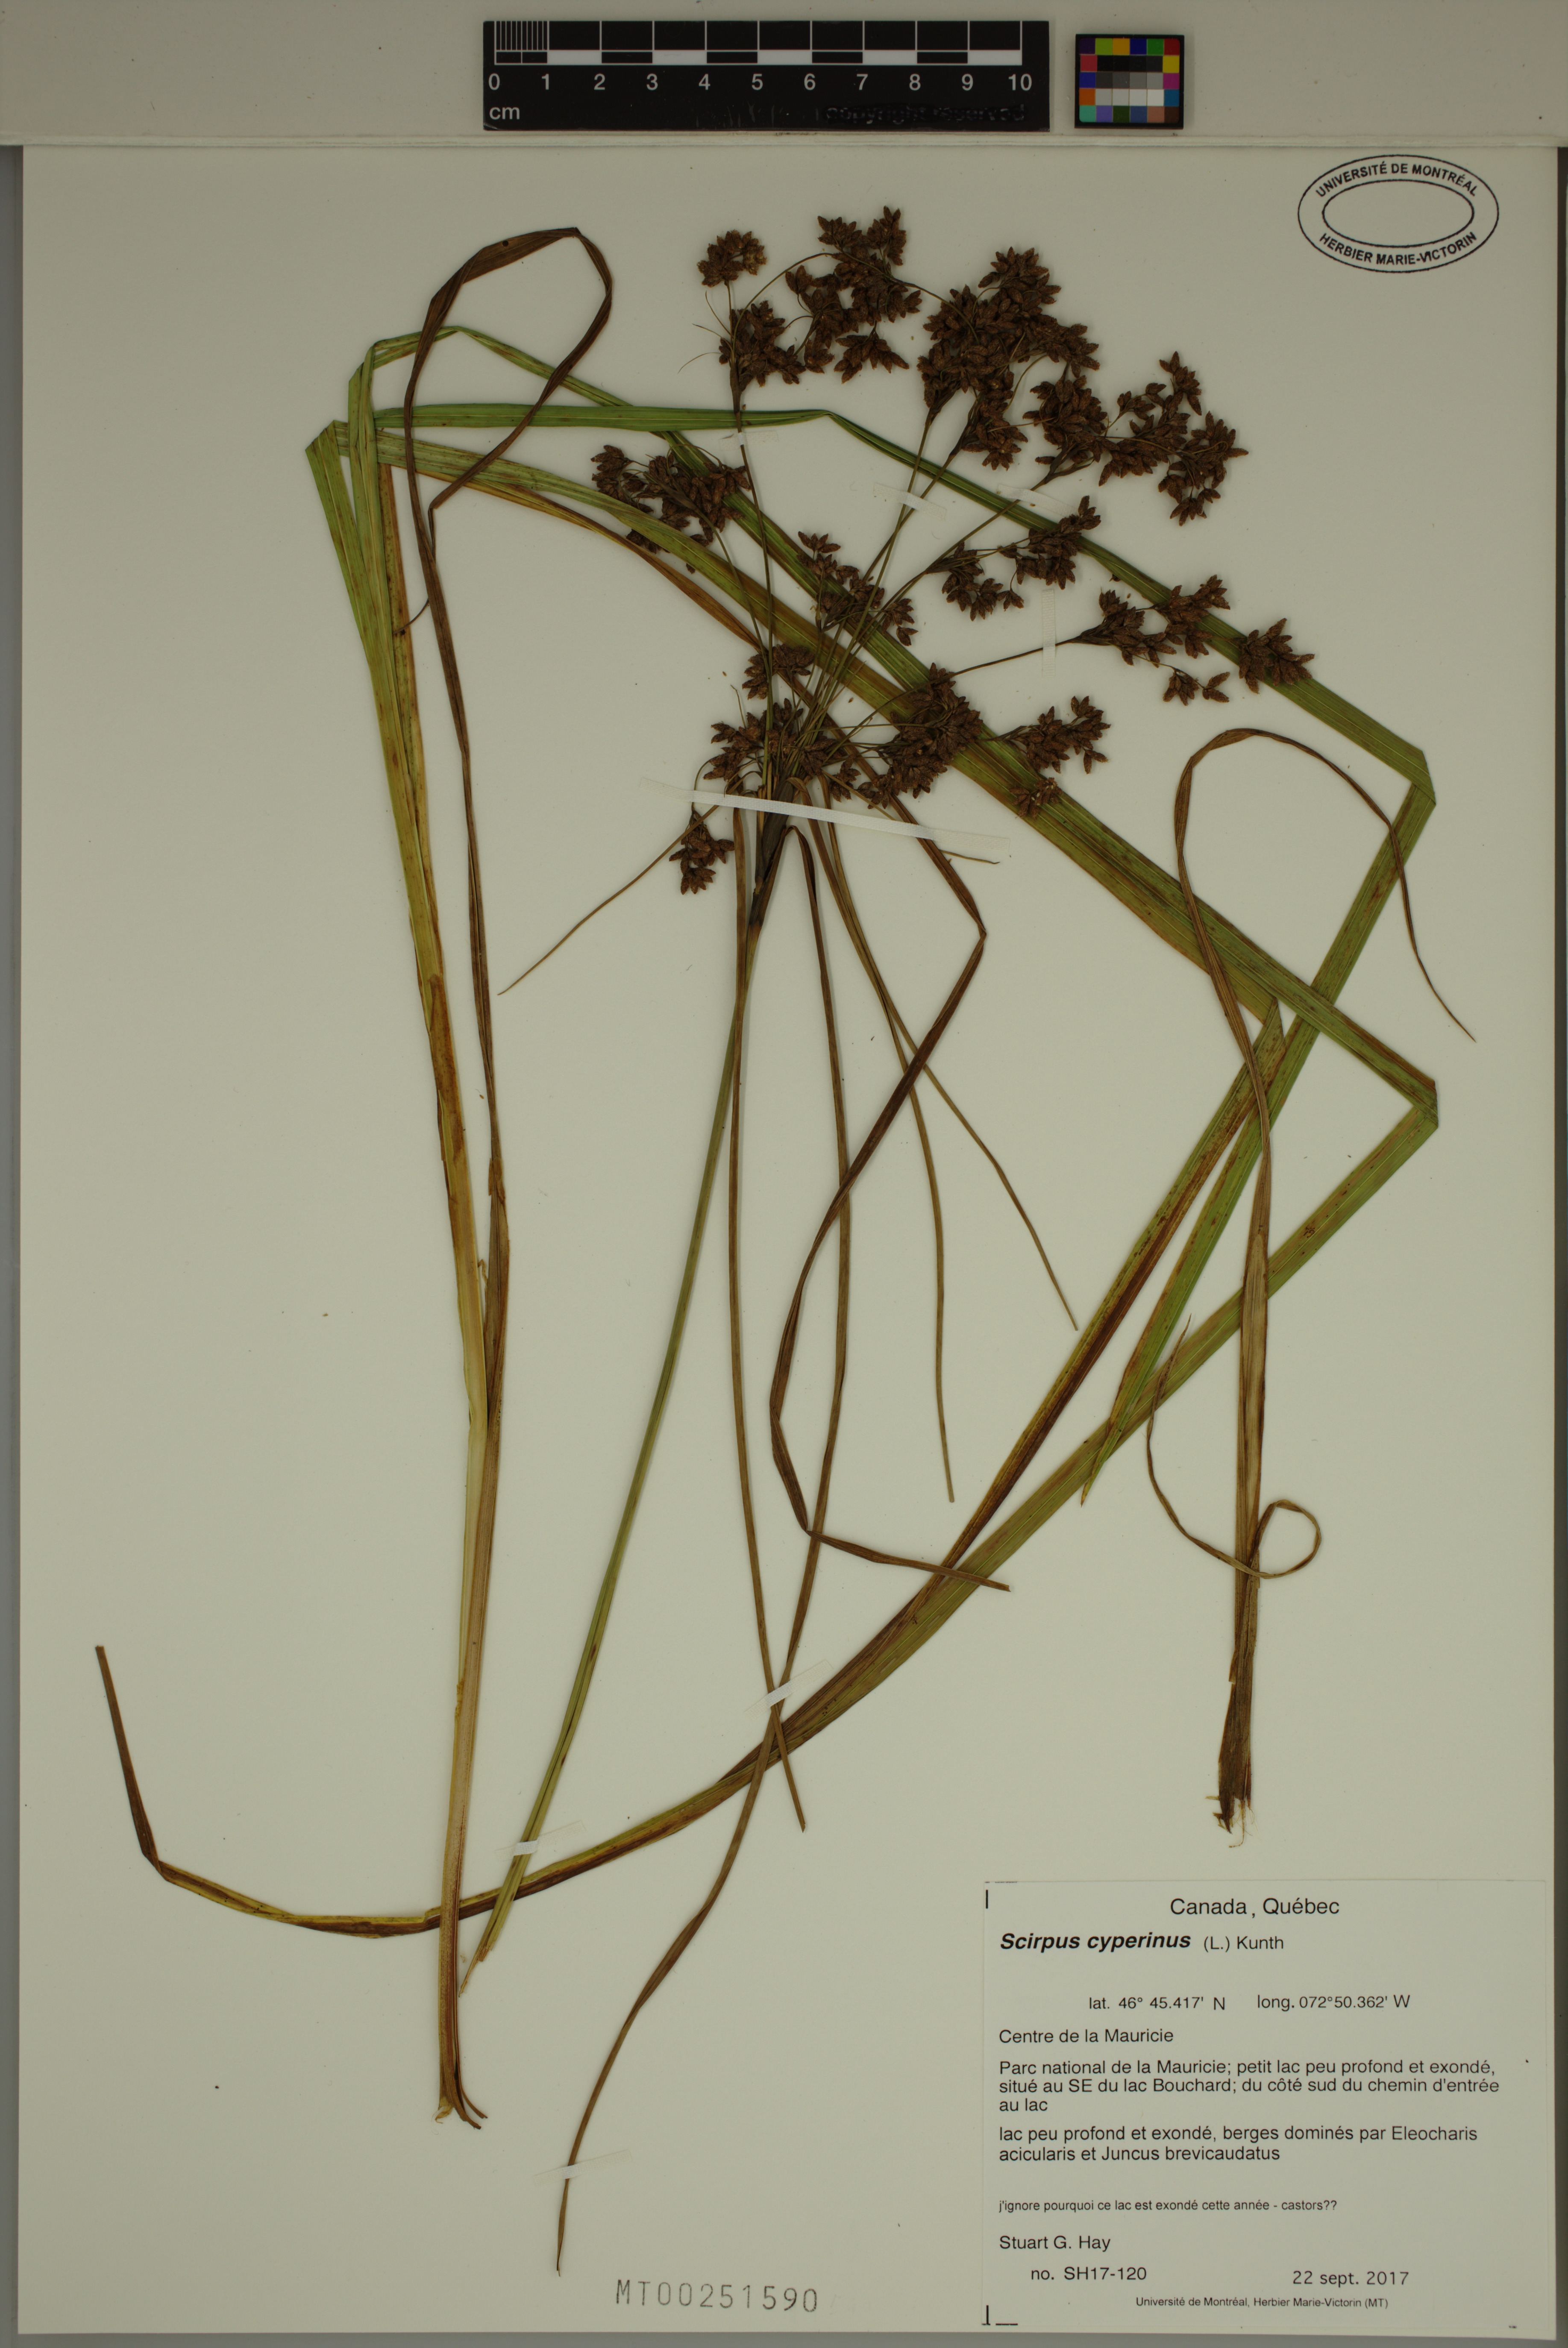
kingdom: Plantae
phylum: Tracheophyta
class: Liliopsida
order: Poales
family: Cyperaceae
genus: Scirpus
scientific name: Scirpus cyperinus
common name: Black-sheathed bulrush
